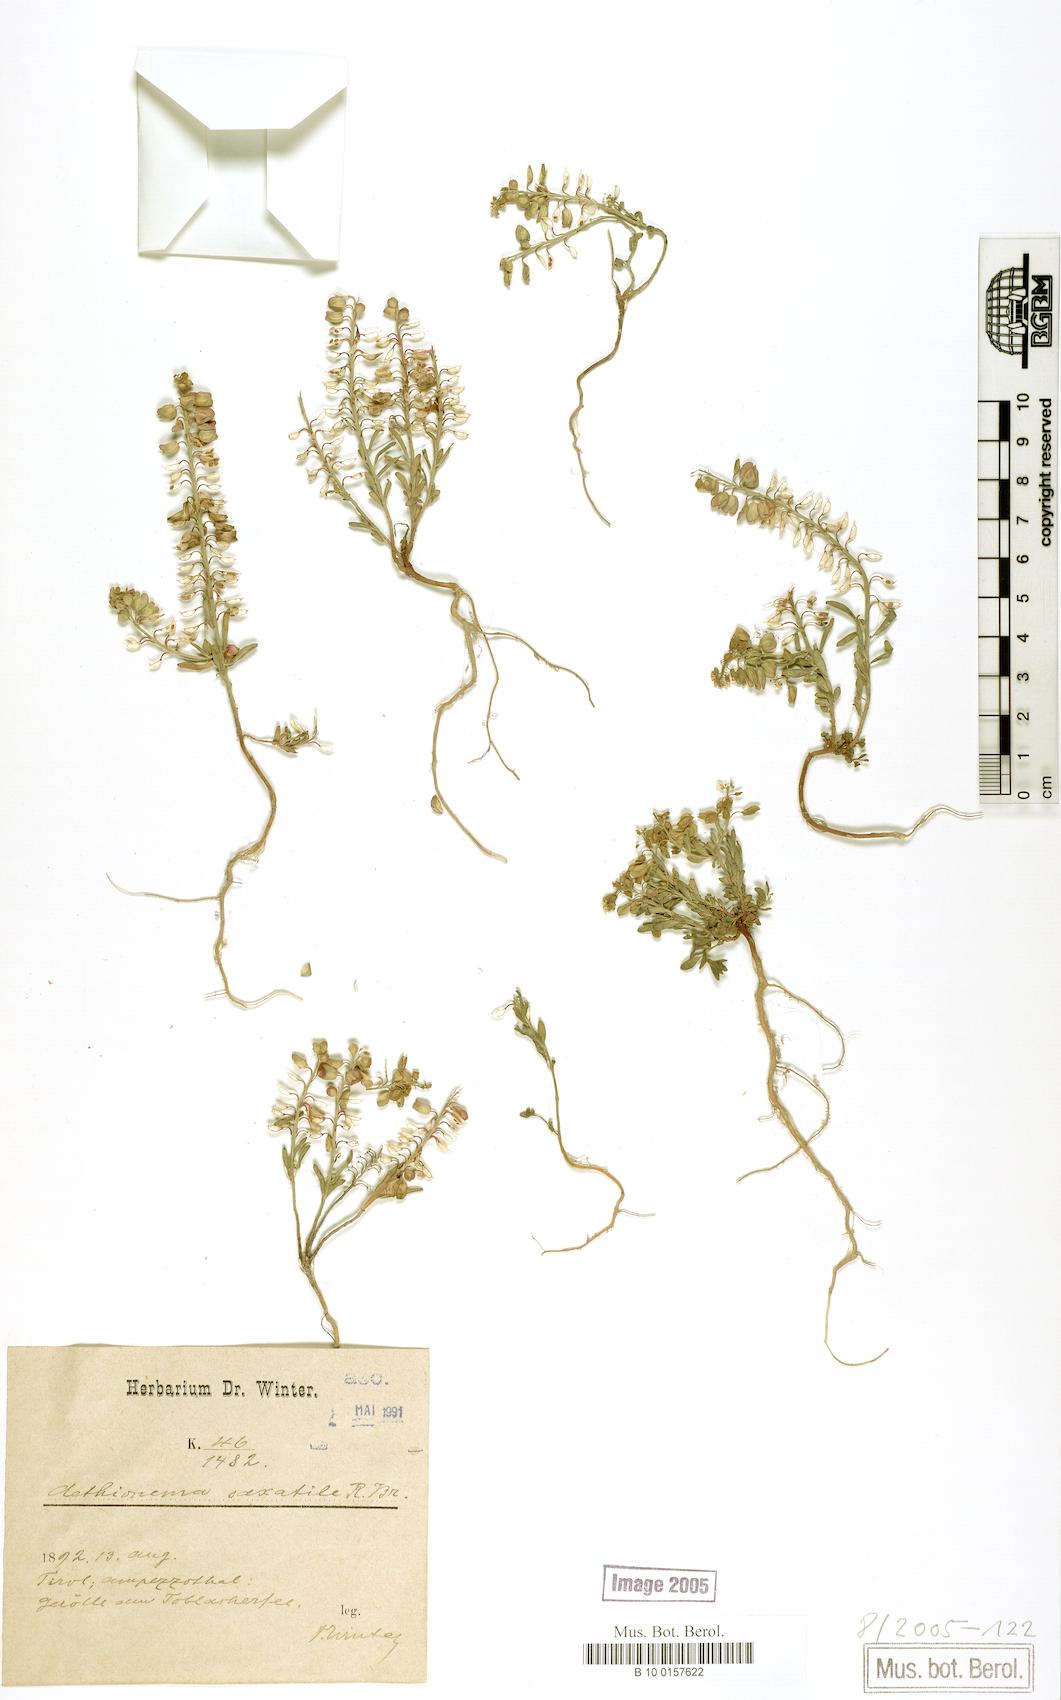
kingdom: Plantae
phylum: Tracheophyta
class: Magnoliopsida
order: Brassicales
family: Brassicaceae
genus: Aethionema
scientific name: Aethionema saxatile
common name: Burnt candytuft
